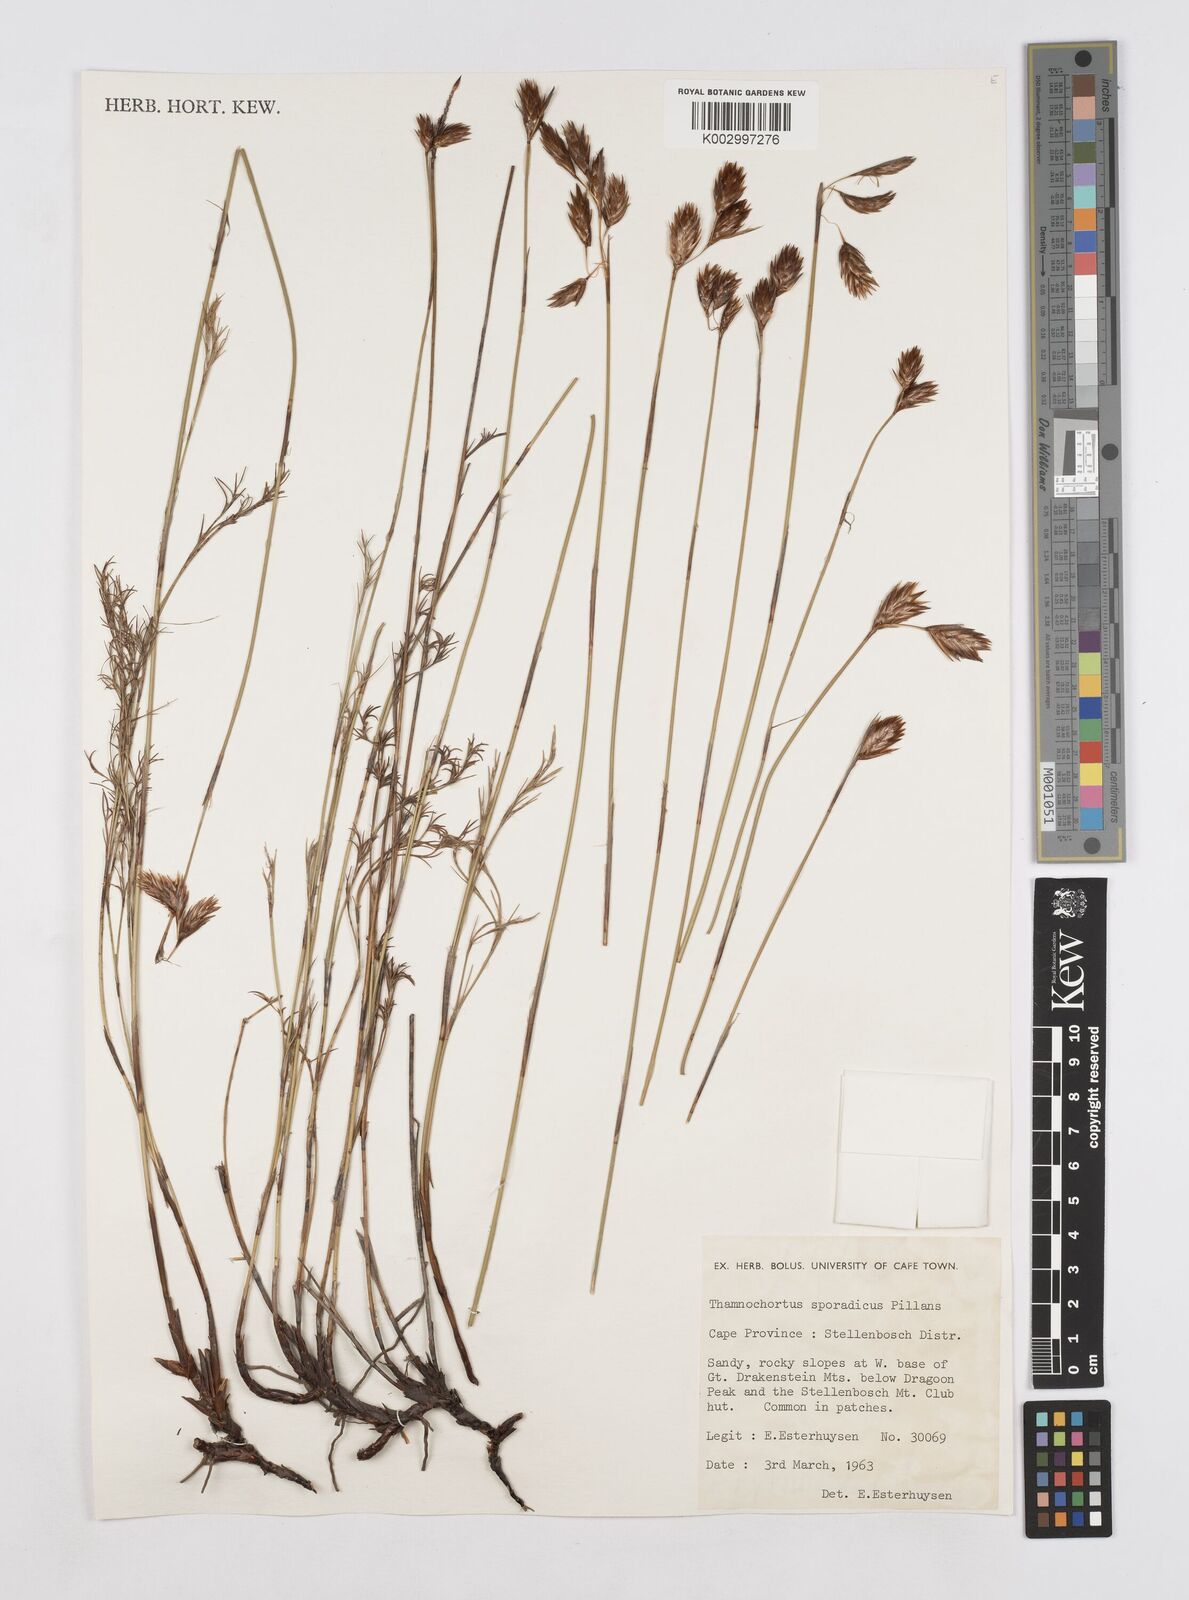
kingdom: Plantae
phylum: Tracheophyta
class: Liliopsida
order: Poales
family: Restionaceae
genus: Thamnochortus
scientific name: Thamnochortus sporadicus
